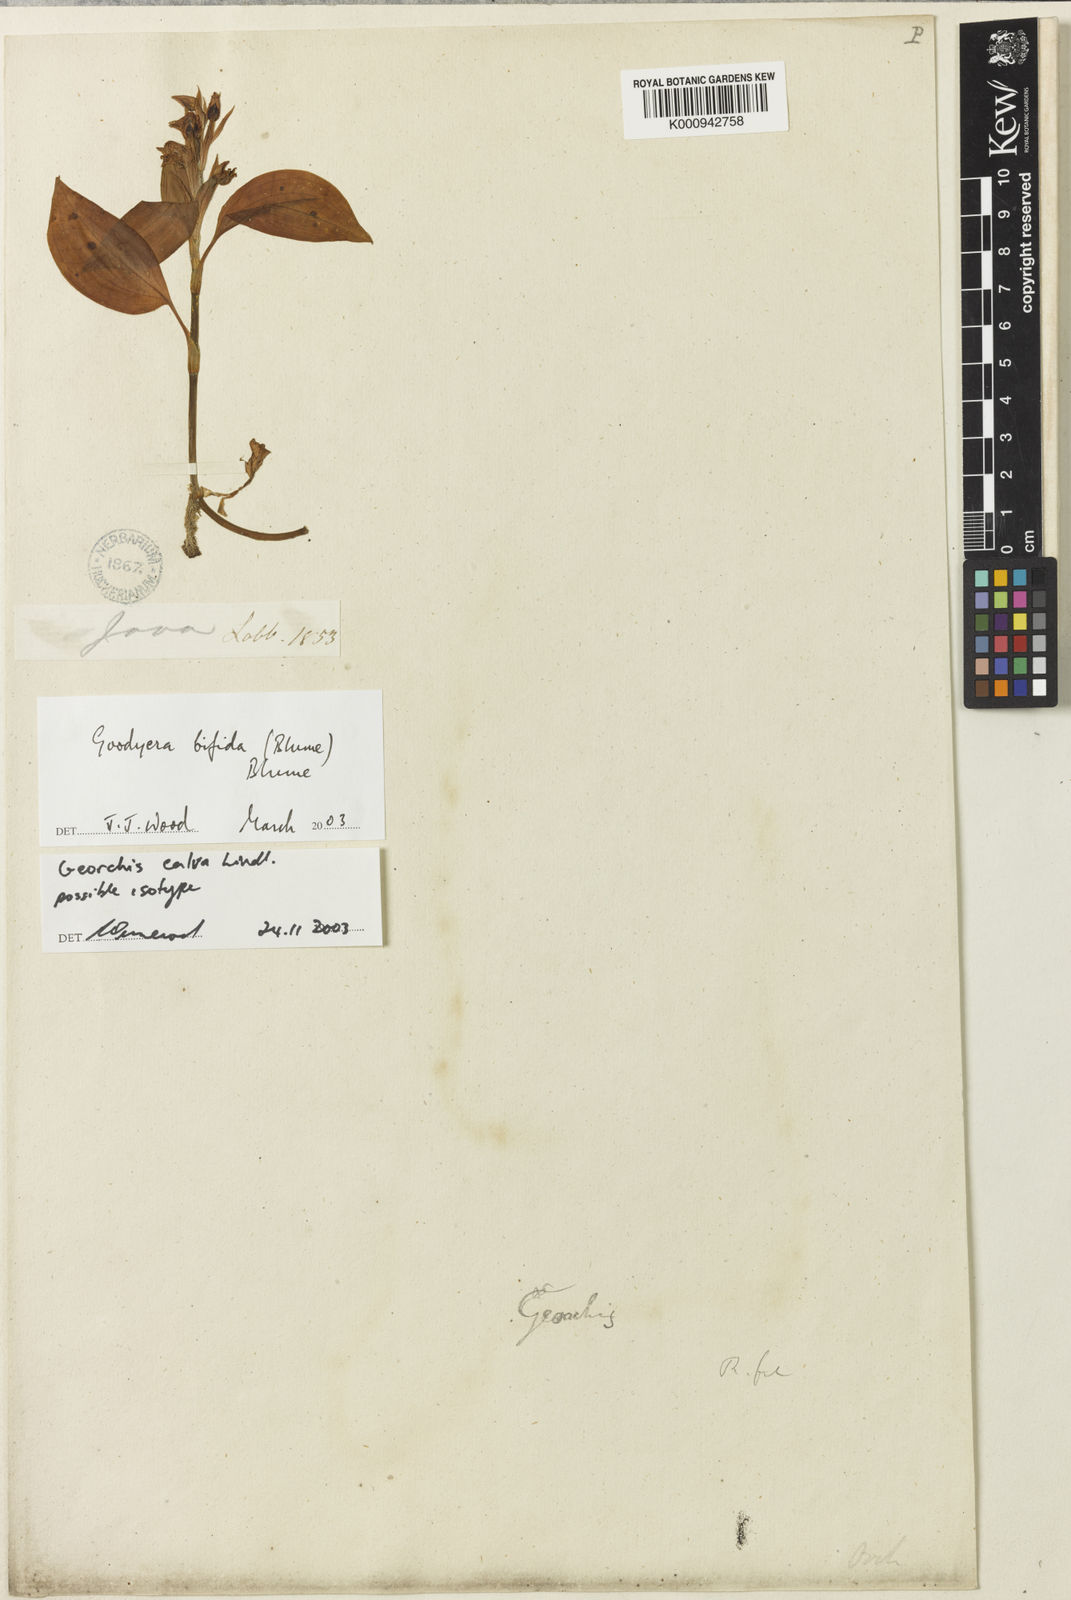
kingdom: Plantae
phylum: Tracheophyta
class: Liliopsida
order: Asparagales
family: Orchidaceae
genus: Goodyera
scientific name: Goodyera bifida
